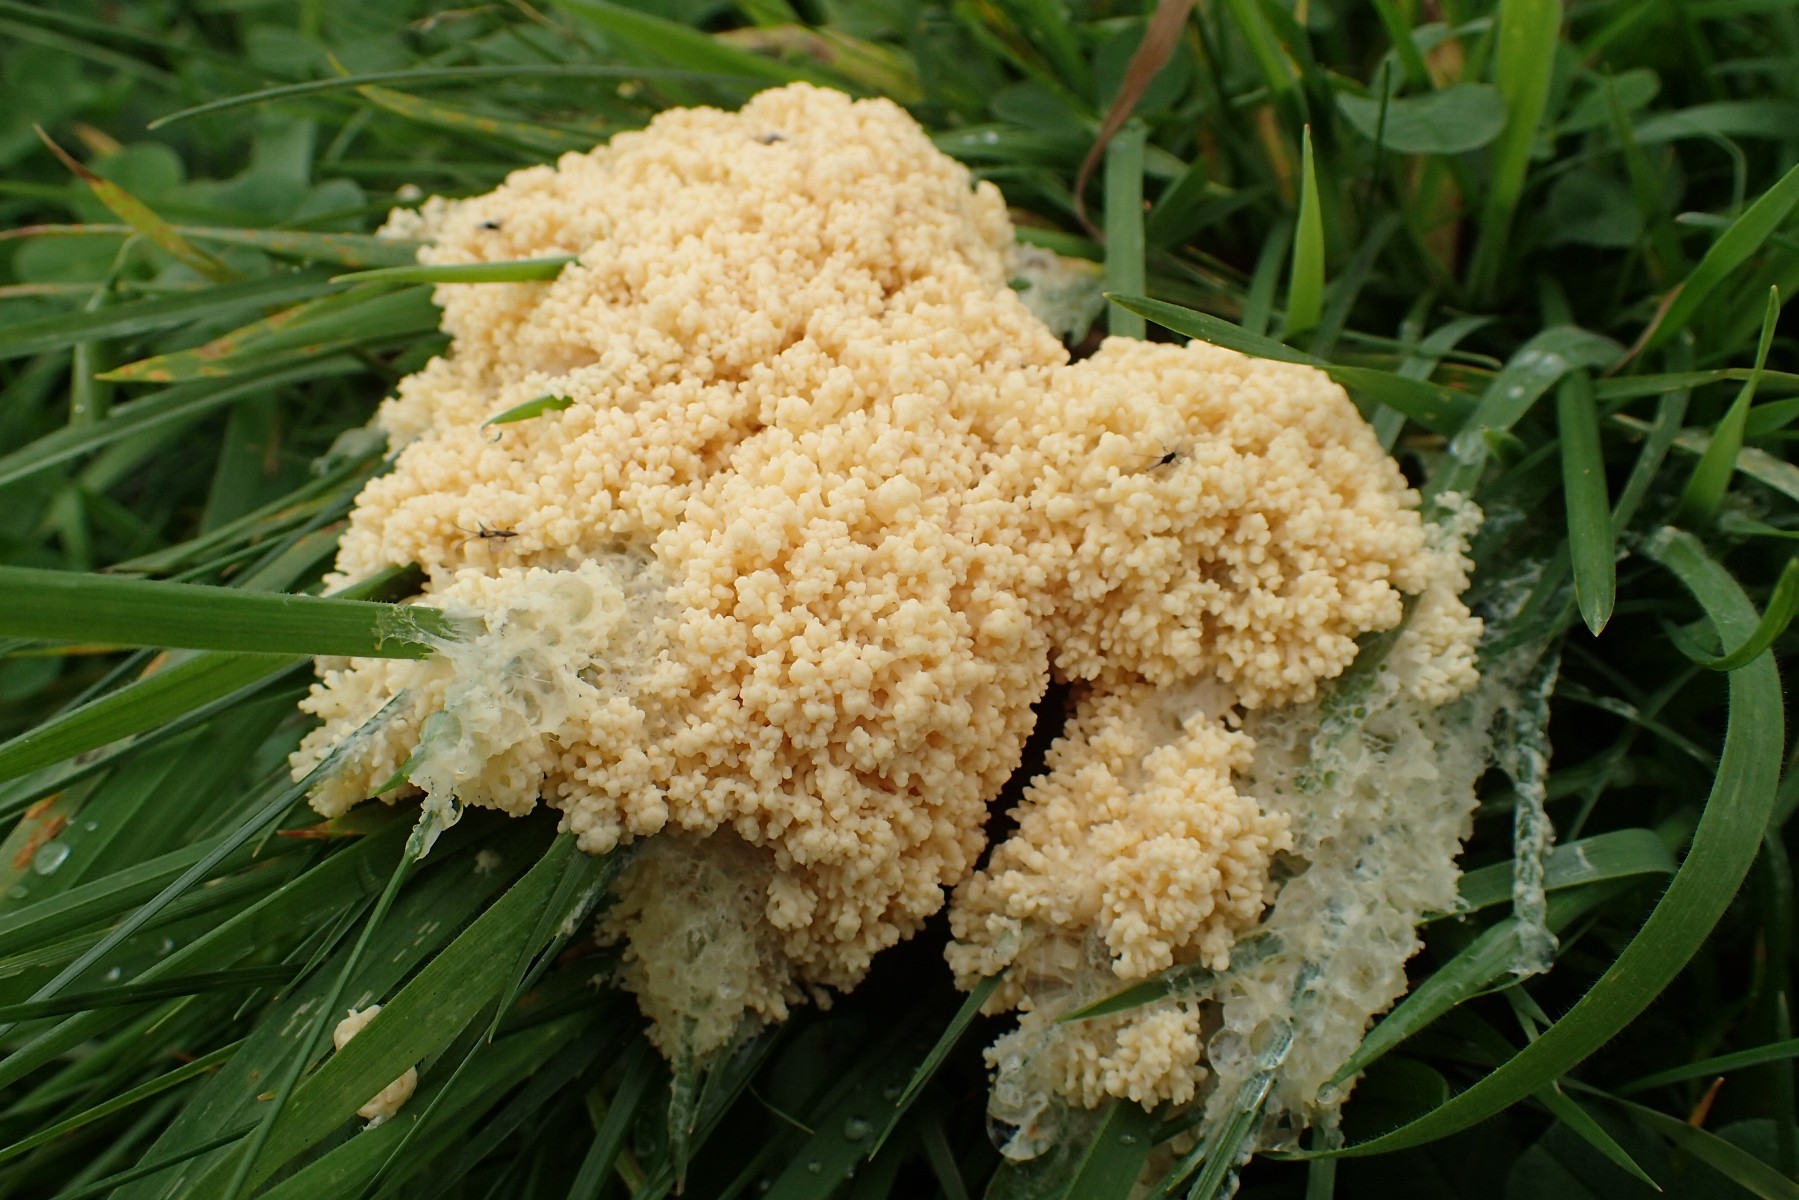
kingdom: Protozoa
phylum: Mycetozoa
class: Myxomycetes
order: Physarales
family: Physaraceae
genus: Didymium
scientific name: Didymium
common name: urteskum
